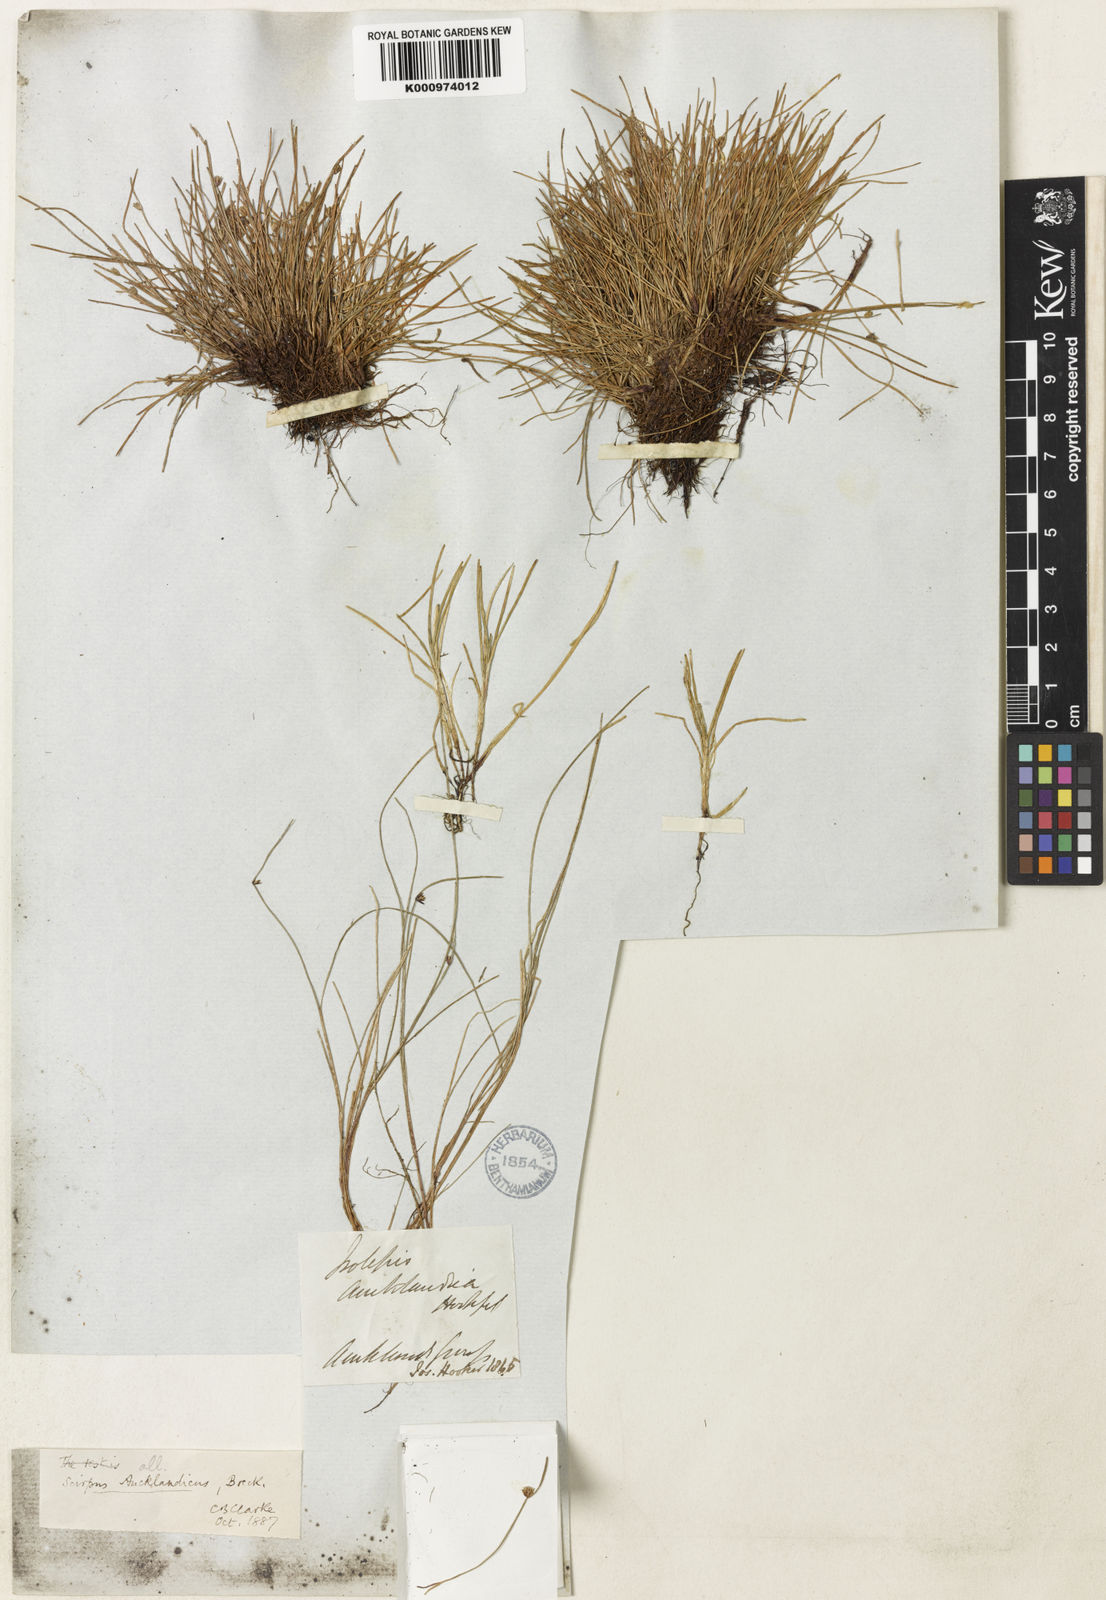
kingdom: Plantae
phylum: Tracheophyta
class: Liliopsida
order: Poales
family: Cyperaceae
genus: Isolepis
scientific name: Isolepis aucklandica
